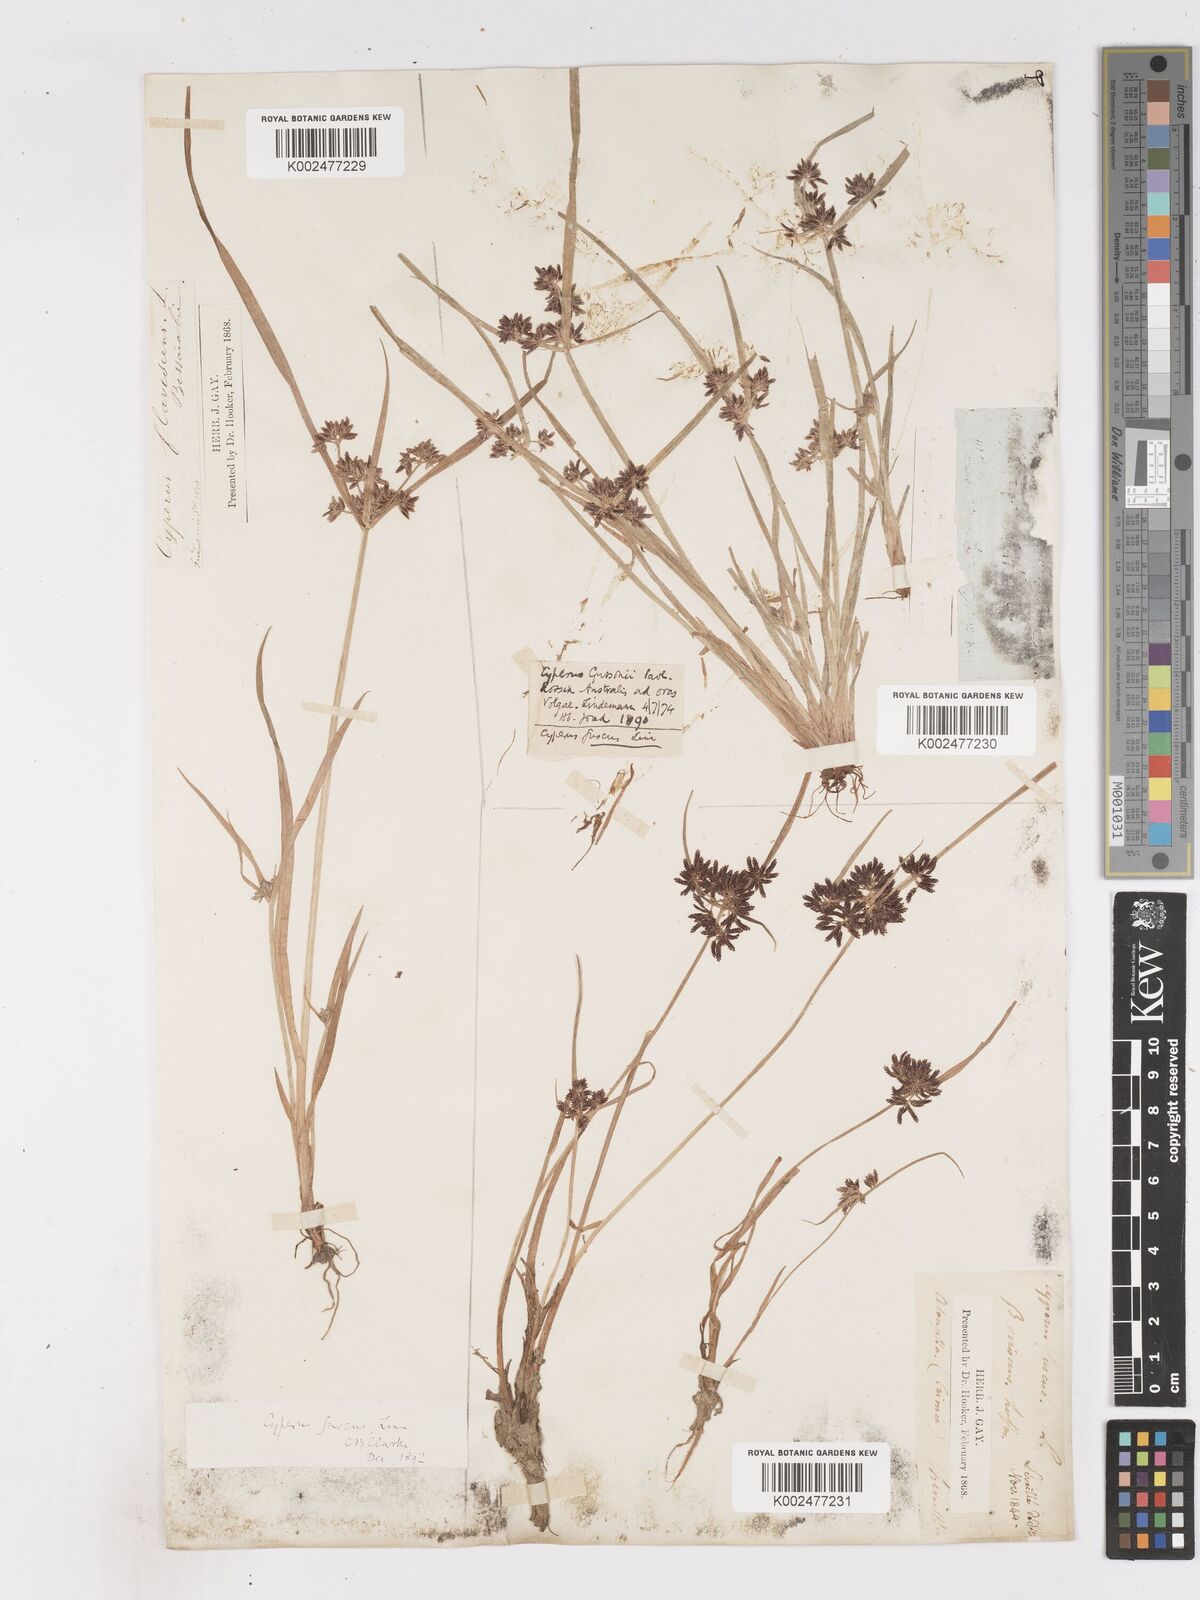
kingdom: Plantae
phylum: Tracheophyta
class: Liliopsida
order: Poales
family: Cyperaceae
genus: Cyperus
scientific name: Cyperus fuscus
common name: Brown galingale
